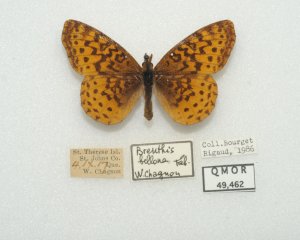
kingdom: Animalia
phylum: Arthropoda
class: Insecta
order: Lepidoptera
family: Nymphalidae
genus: Clossiana
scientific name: Clossiana toddi
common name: Meadow Fritillary
